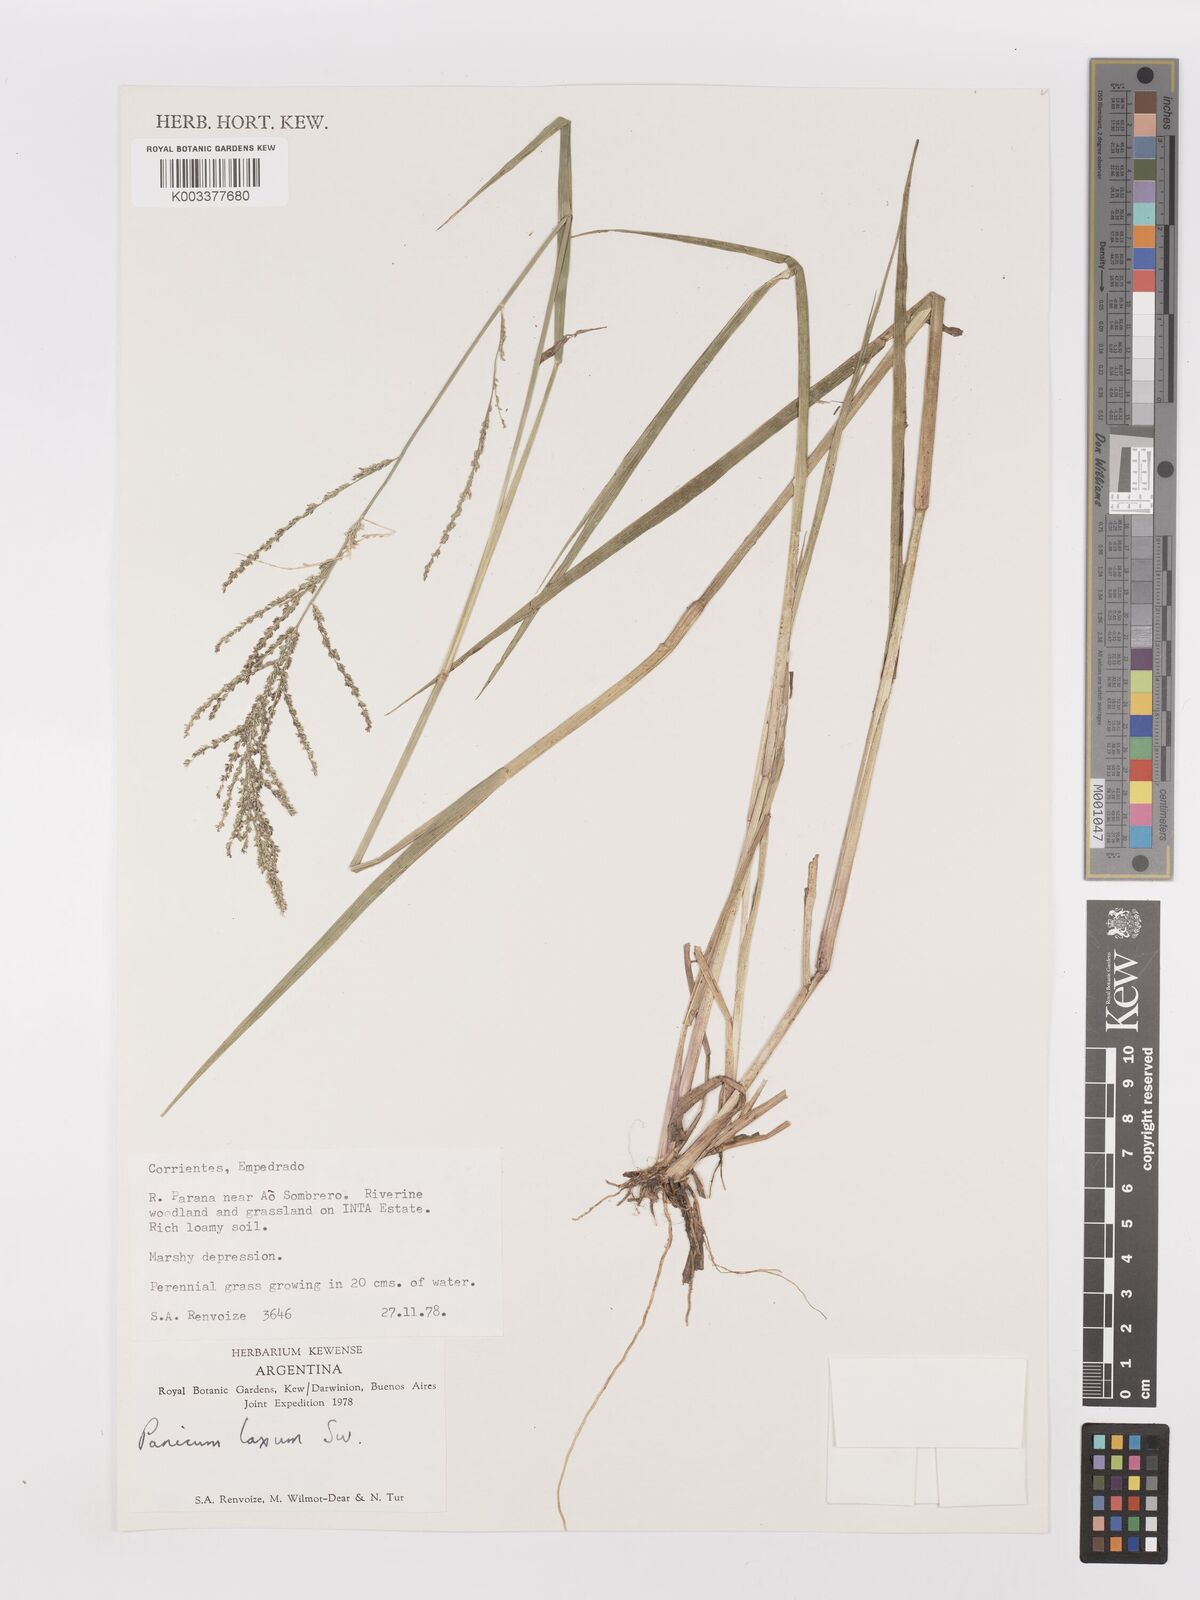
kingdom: Plantae
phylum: Tracheophyta
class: Liliopsida
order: Poales
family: Poaceae
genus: Steinchisma
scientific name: Steinchisma laxum
